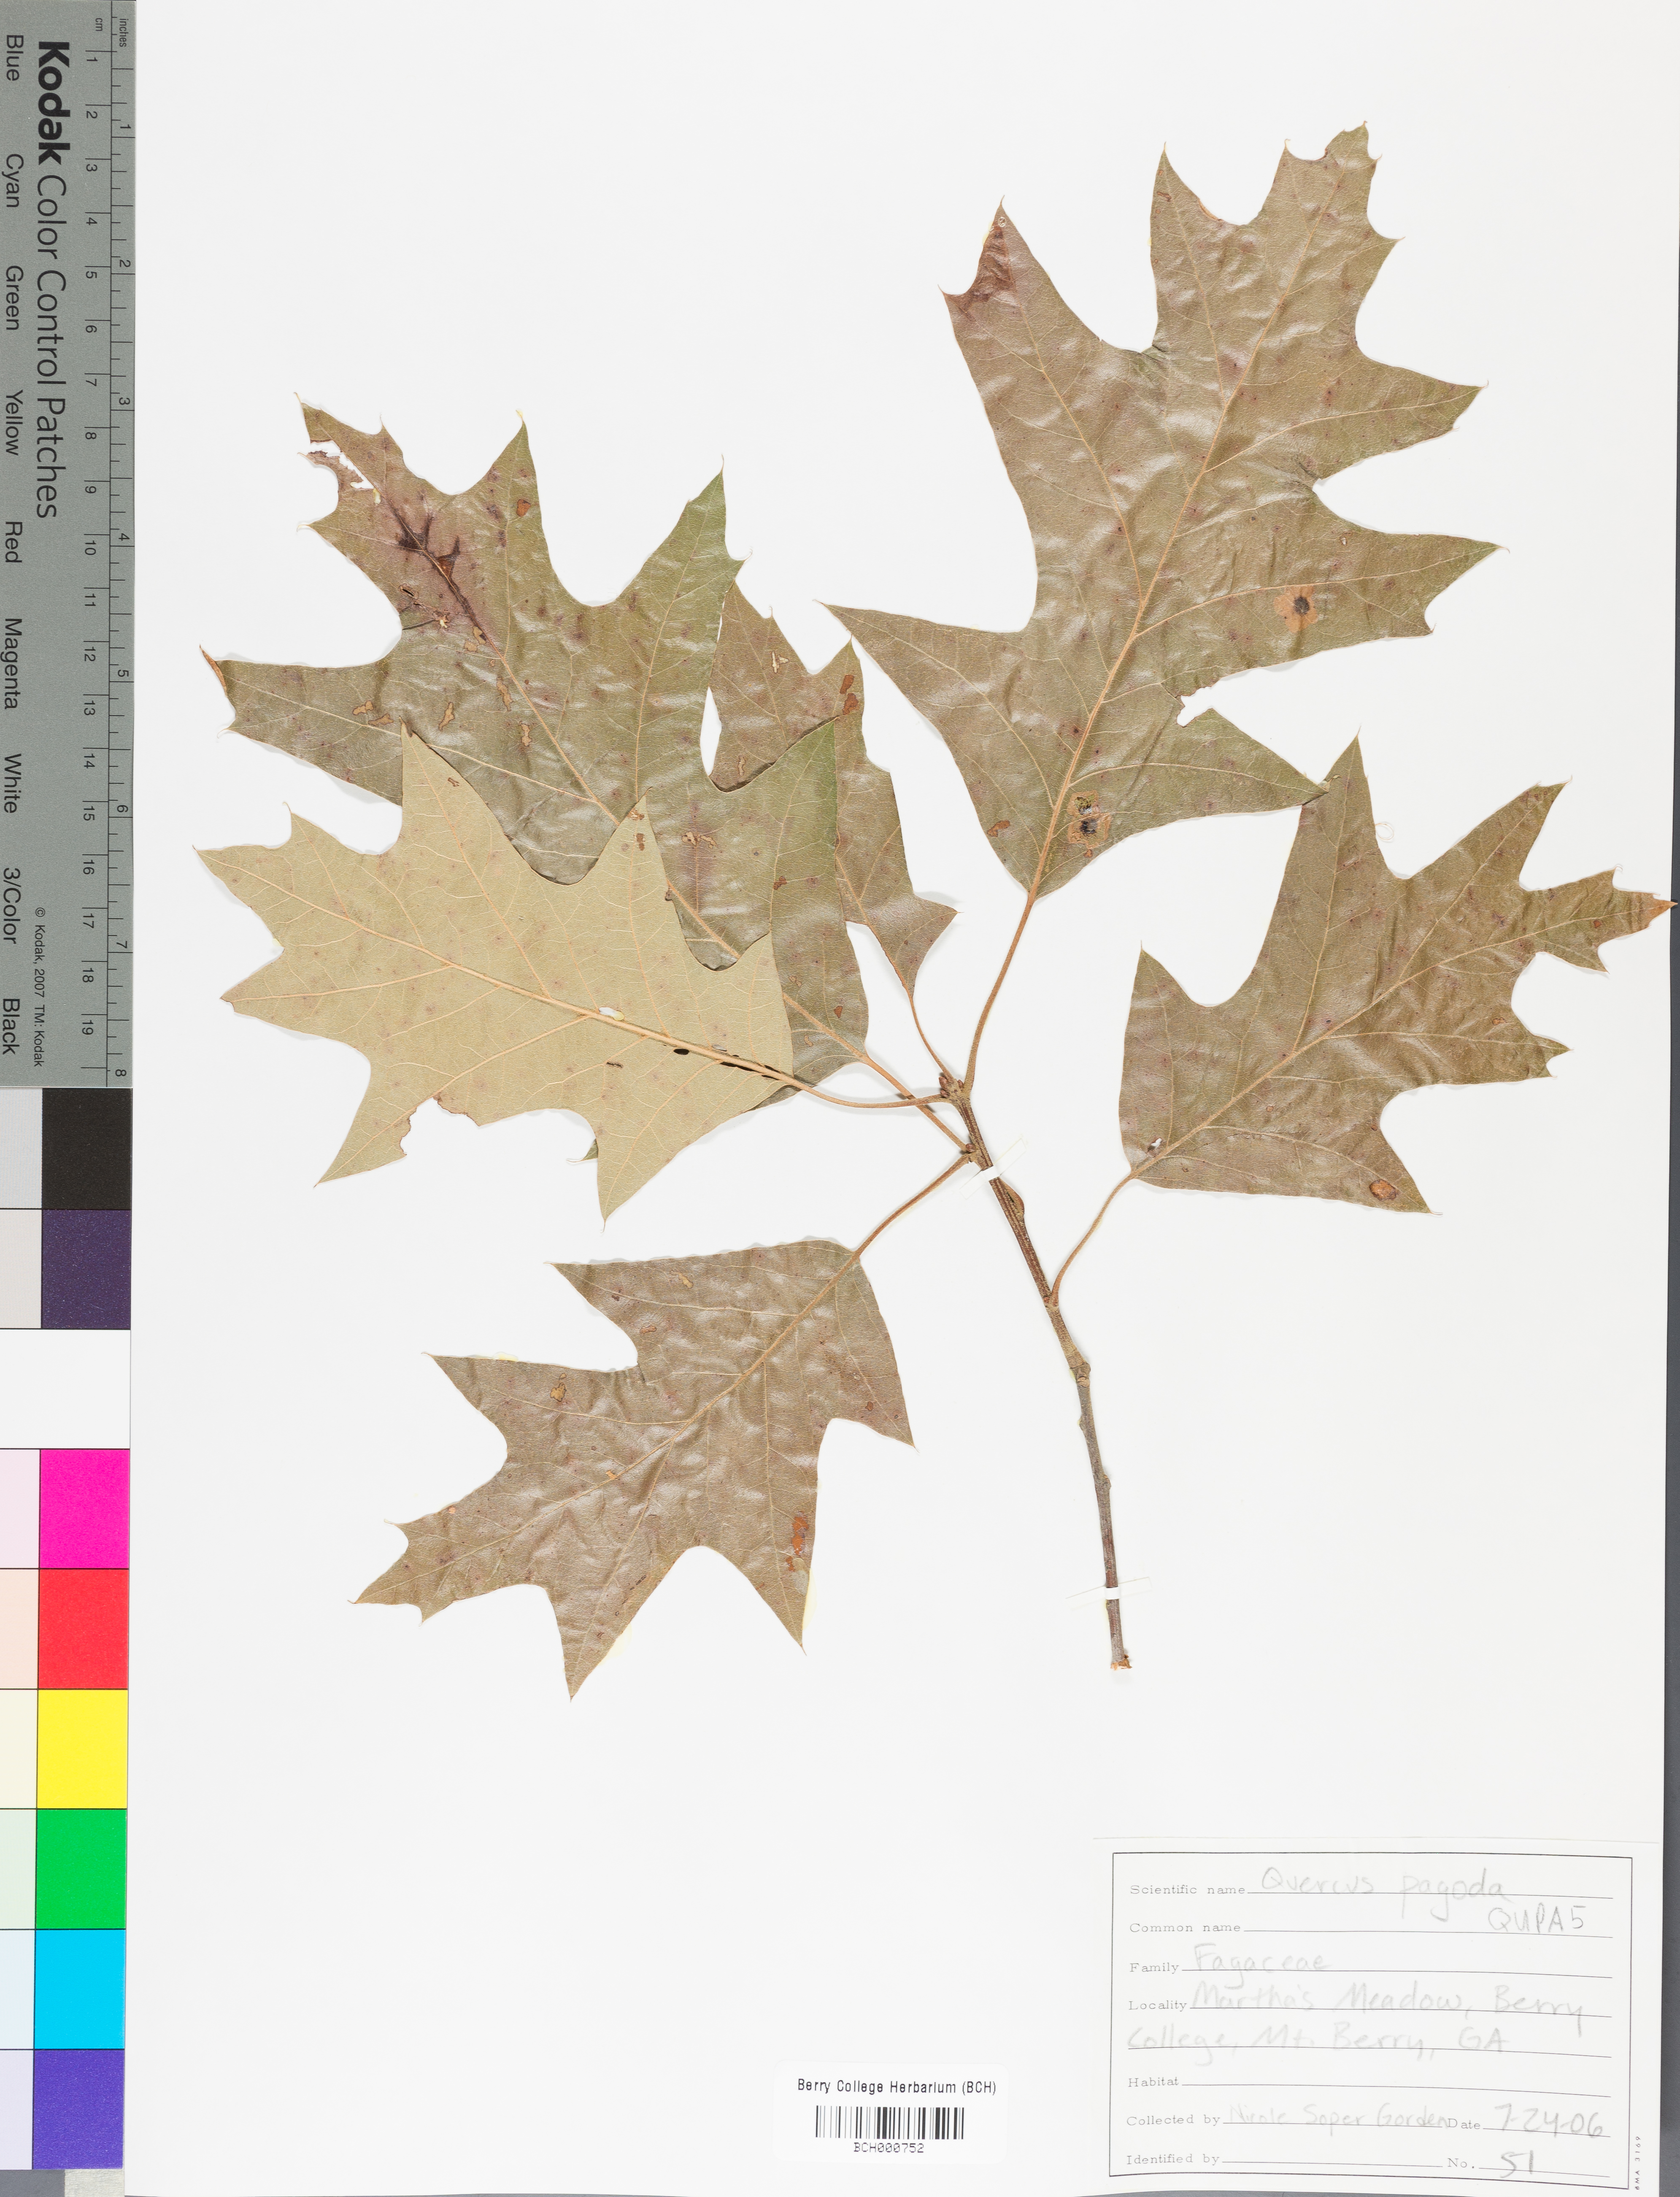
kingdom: Plantae
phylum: Tracheophyta
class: Magnoliopsida
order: Fagales
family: Fagaceae
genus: Quercus
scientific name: Quercus pagoda
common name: Cherrybark oak
